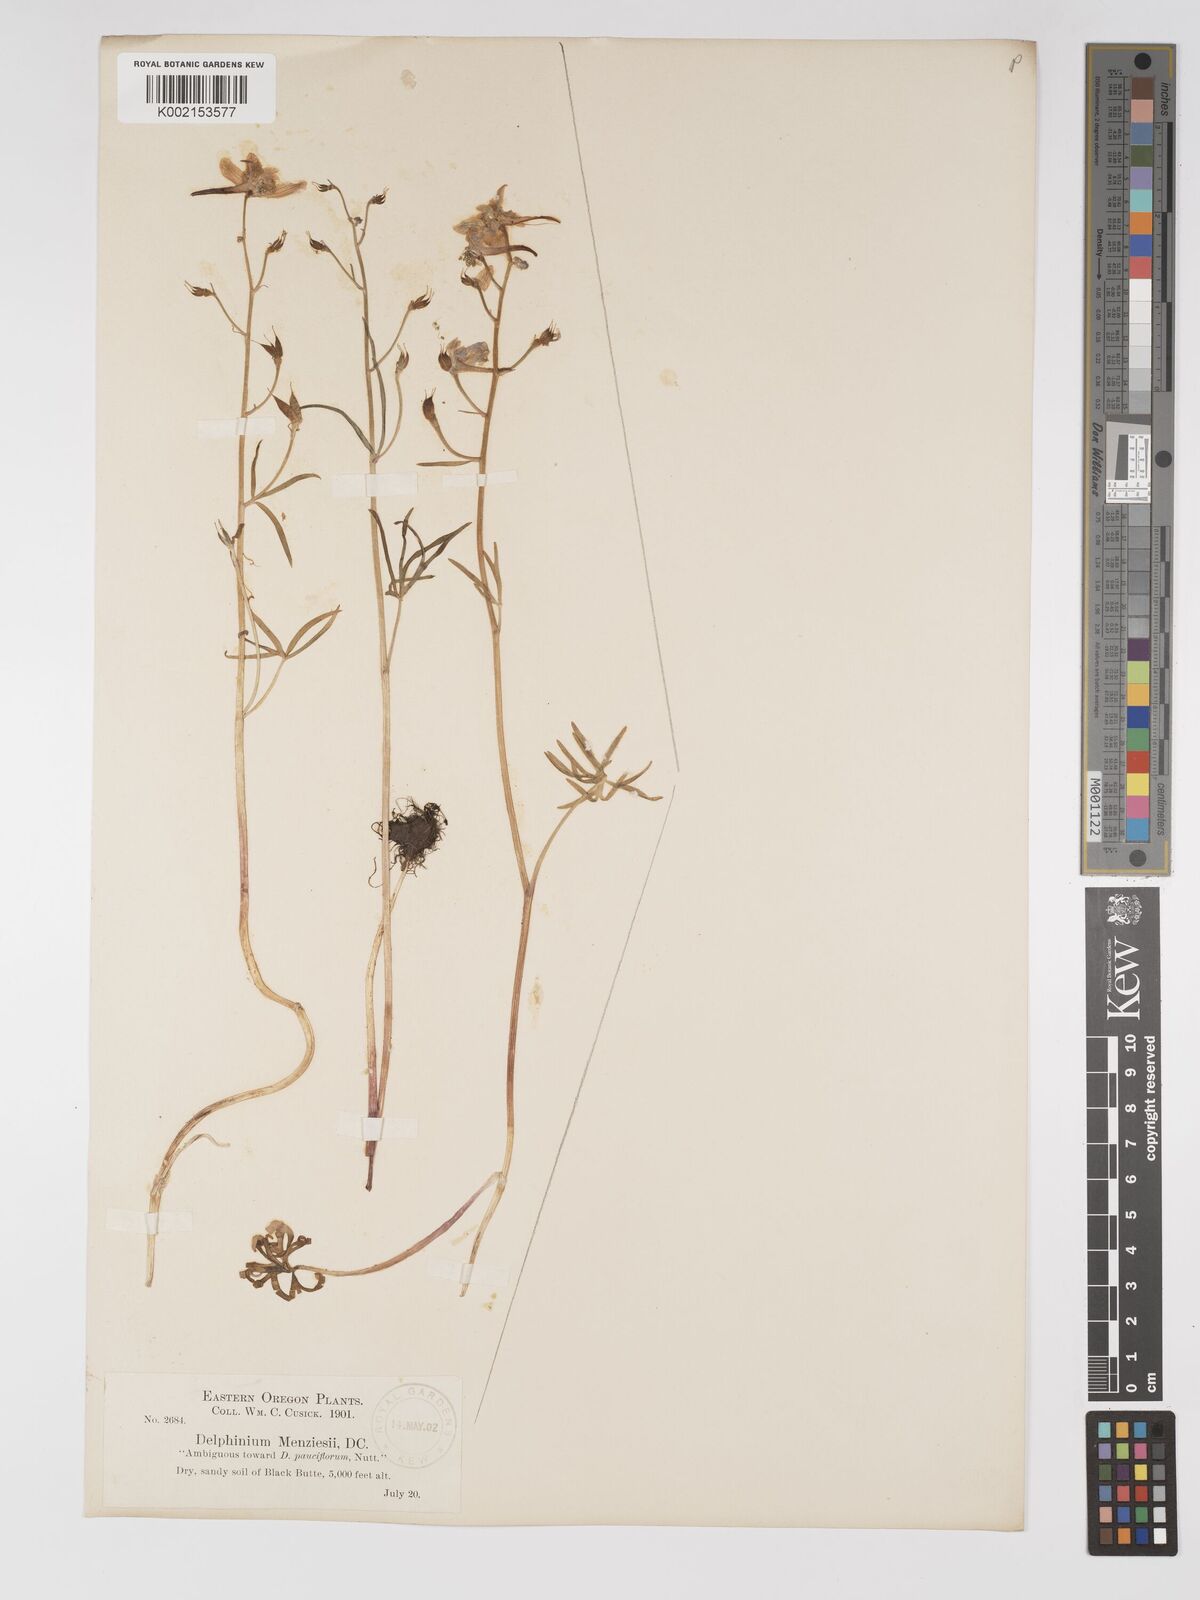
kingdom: Plantae
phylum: Tracheophyta
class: Magnoliopsida
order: Ranunculales
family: Ranunculaceae
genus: Delphinium
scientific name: Delphinium bicolor
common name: Low larkspur
